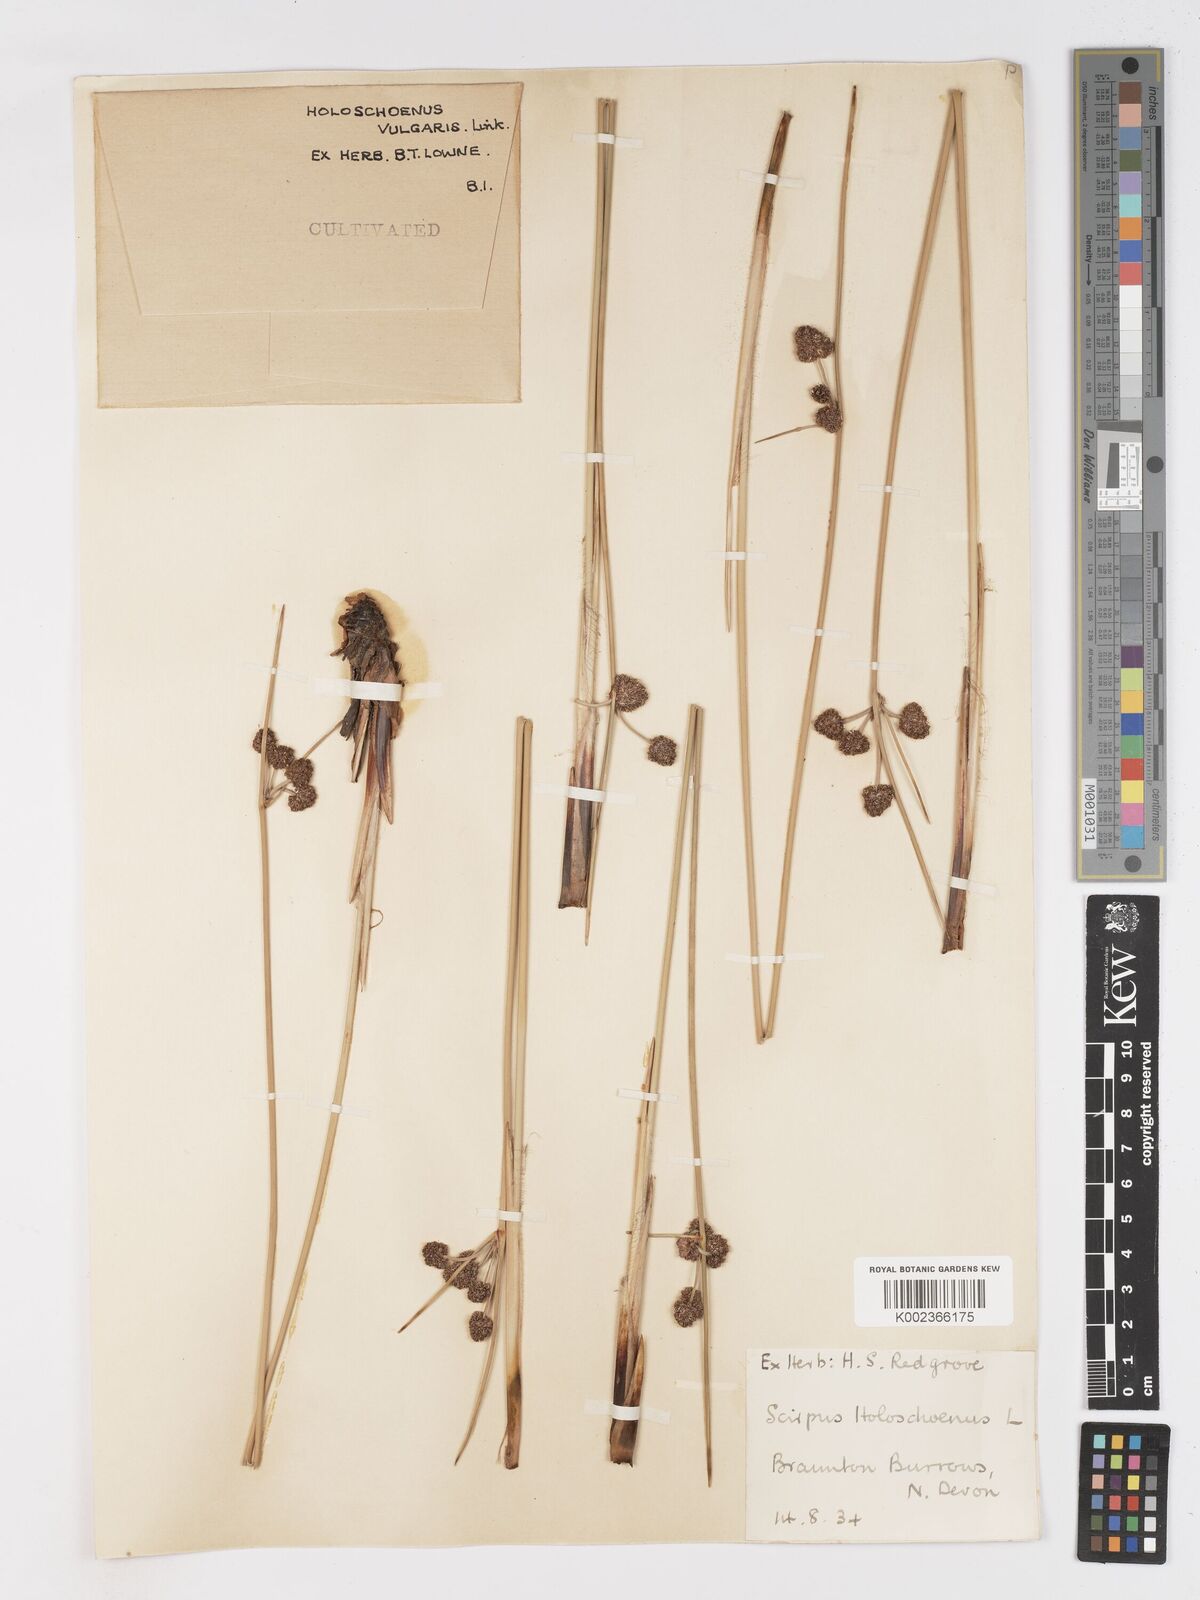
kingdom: Plantae
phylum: Tracheophyta
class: Liliopsida
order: Poales
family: Cyperaceae
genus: Scirpoides
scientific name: Scirpoides holoschoenus
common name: Round-headed club-rush
